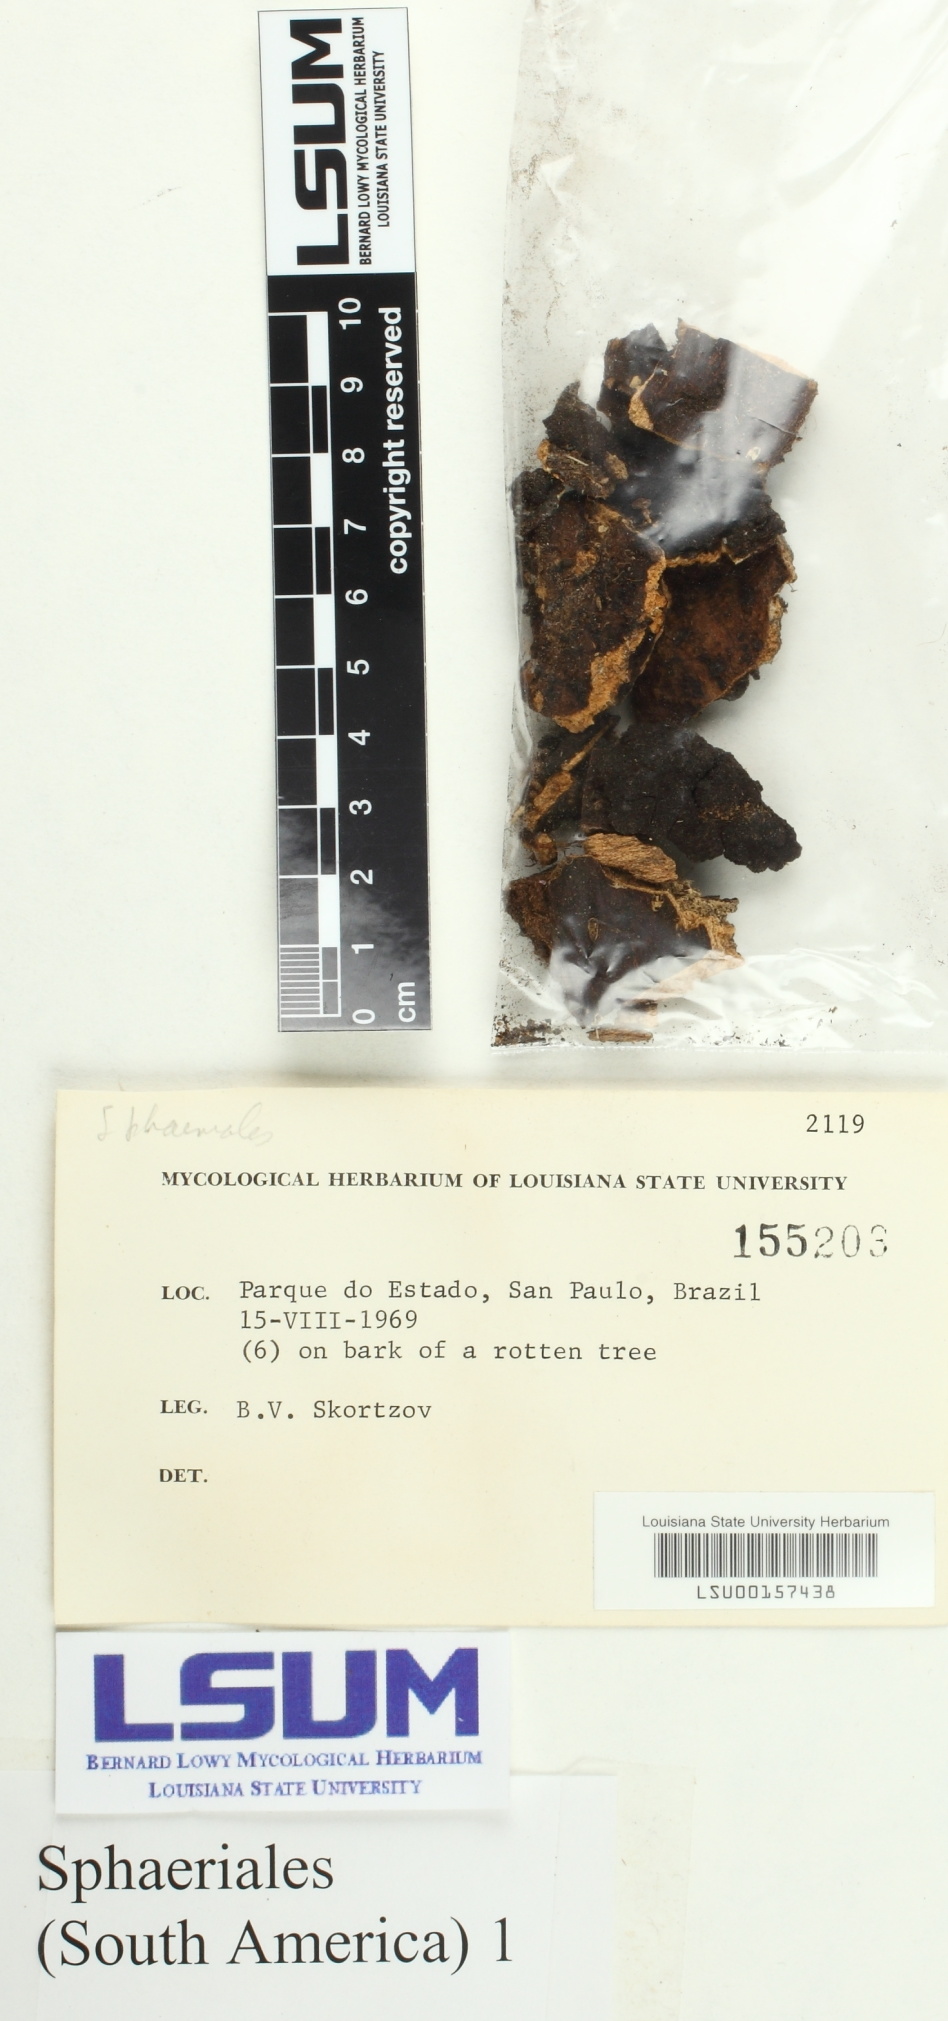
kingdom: Fungi
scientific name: Fungi
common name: Fungi
